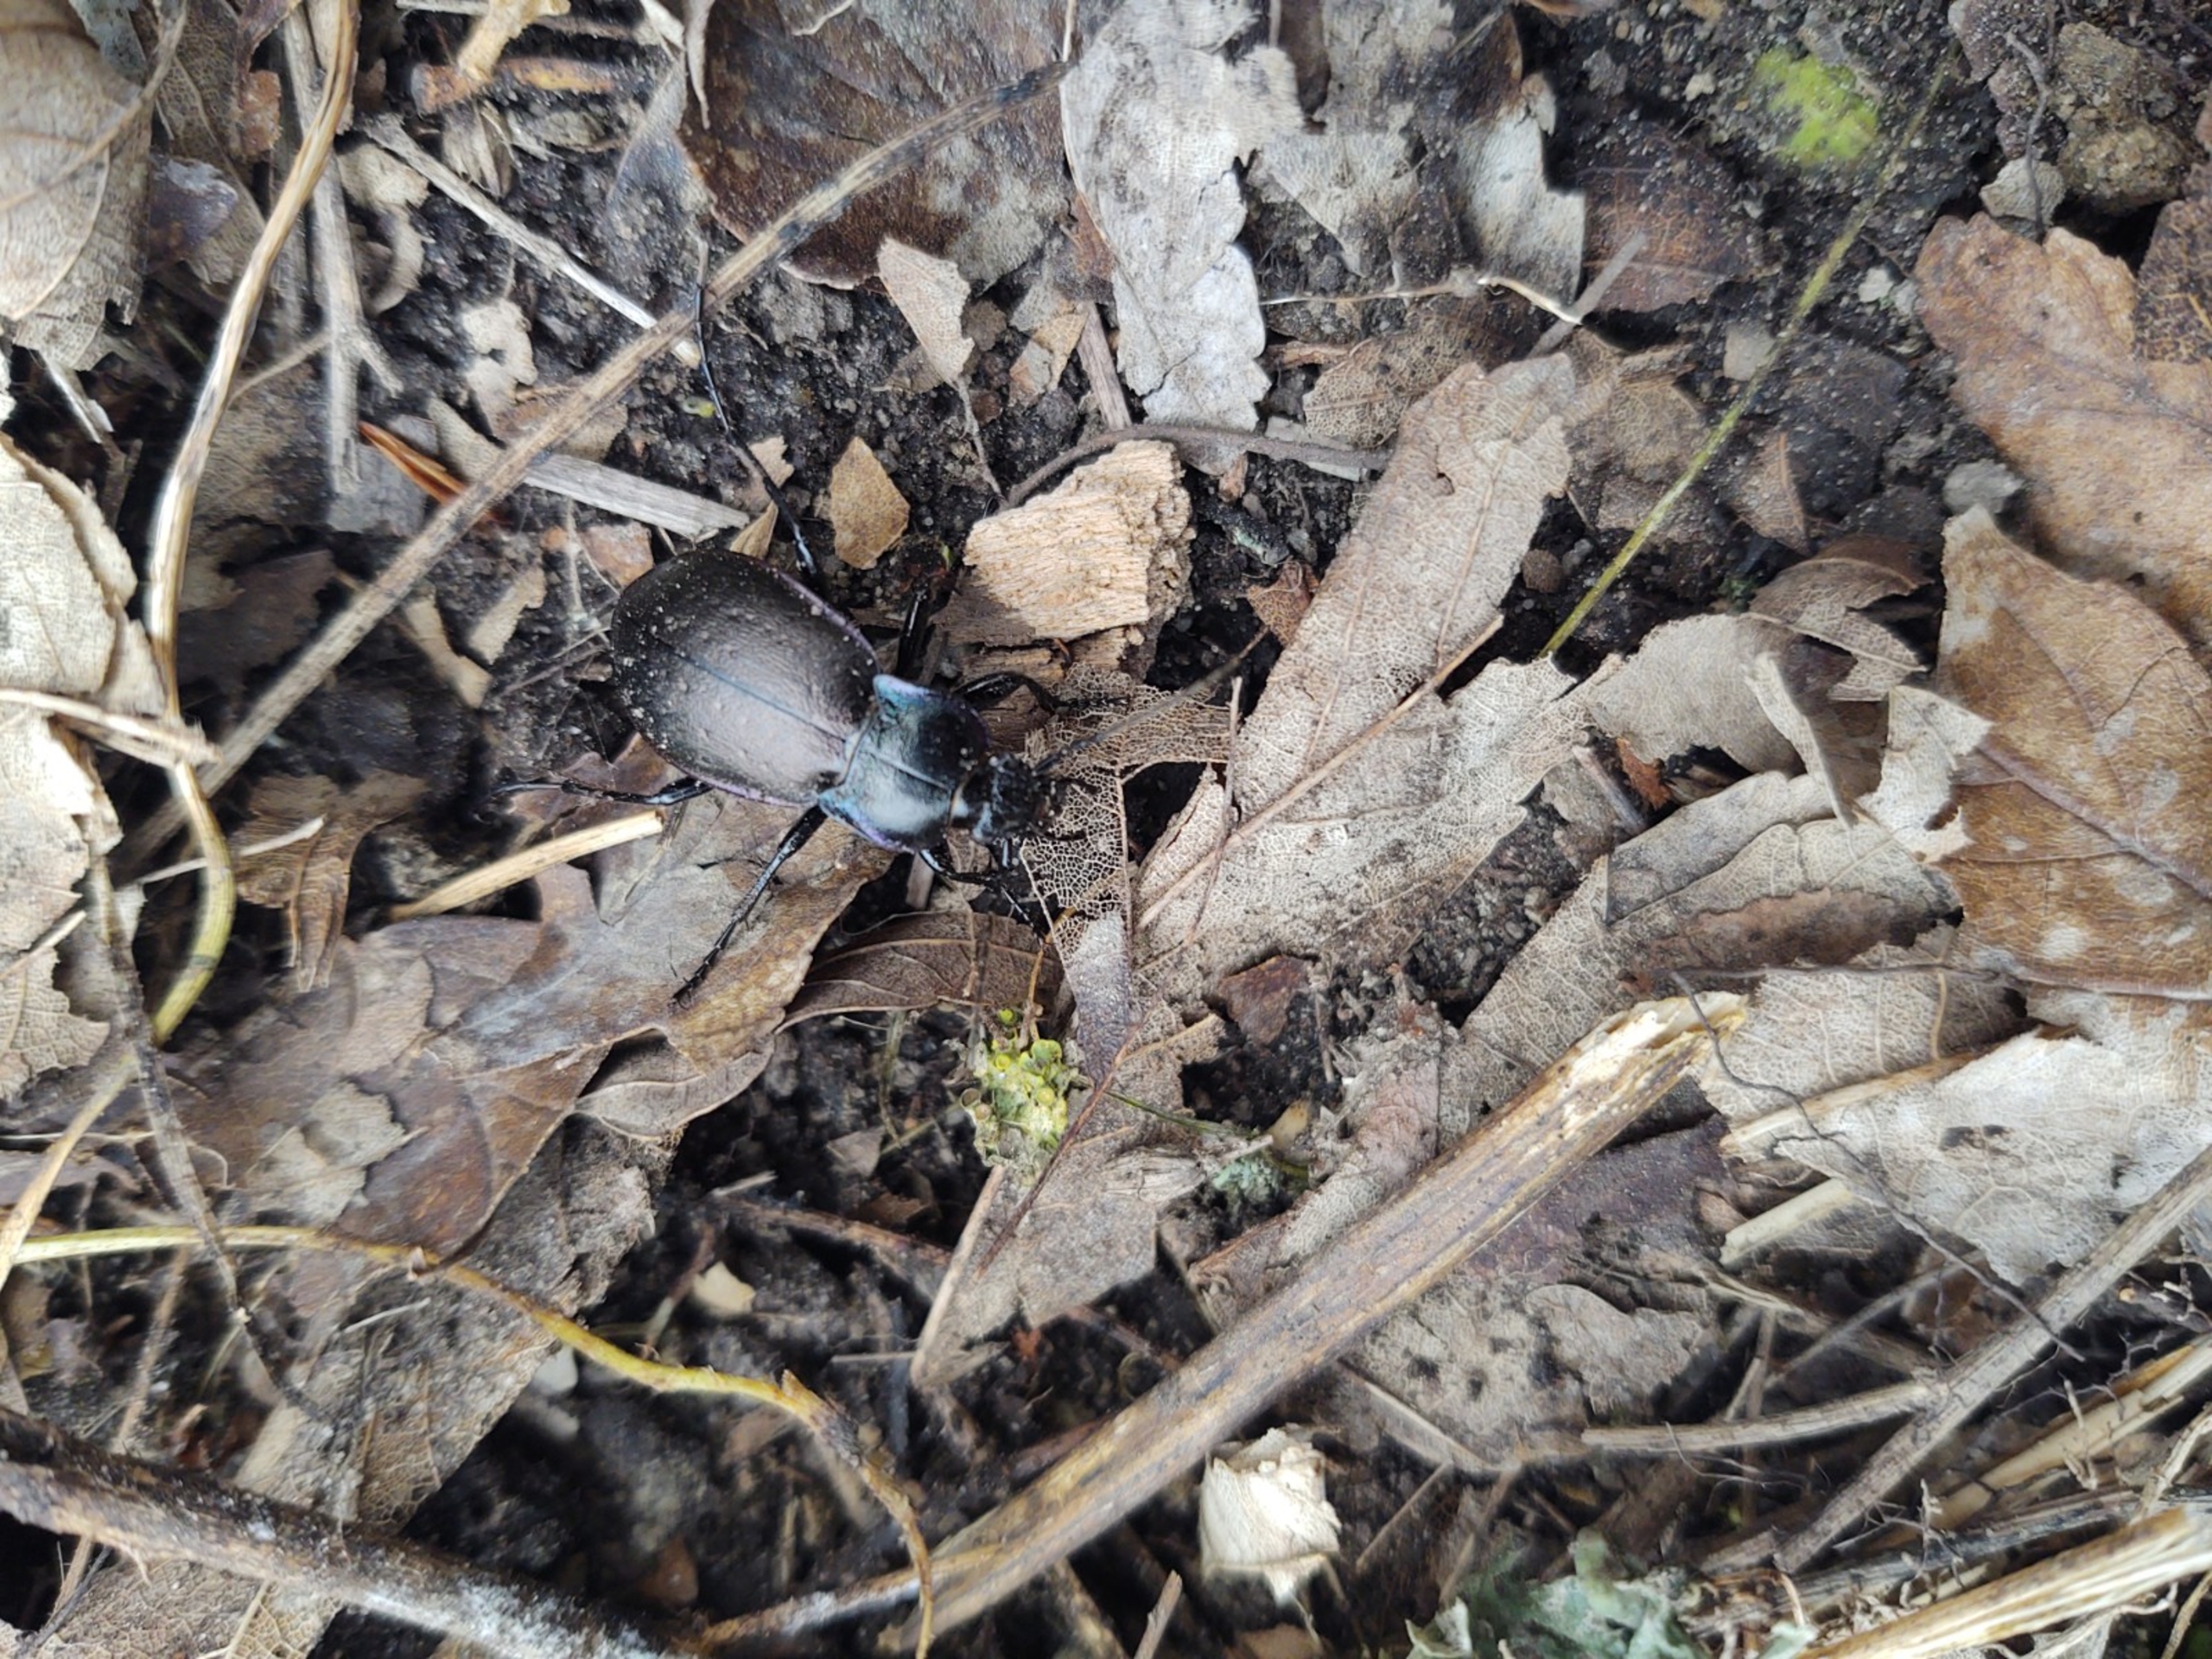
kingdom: Animalia
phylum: Arthropoda
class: Insecta
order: Coleoptera
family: Carabidae
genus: Carabus
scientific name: Carabus nemoralis
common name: Kratløber
